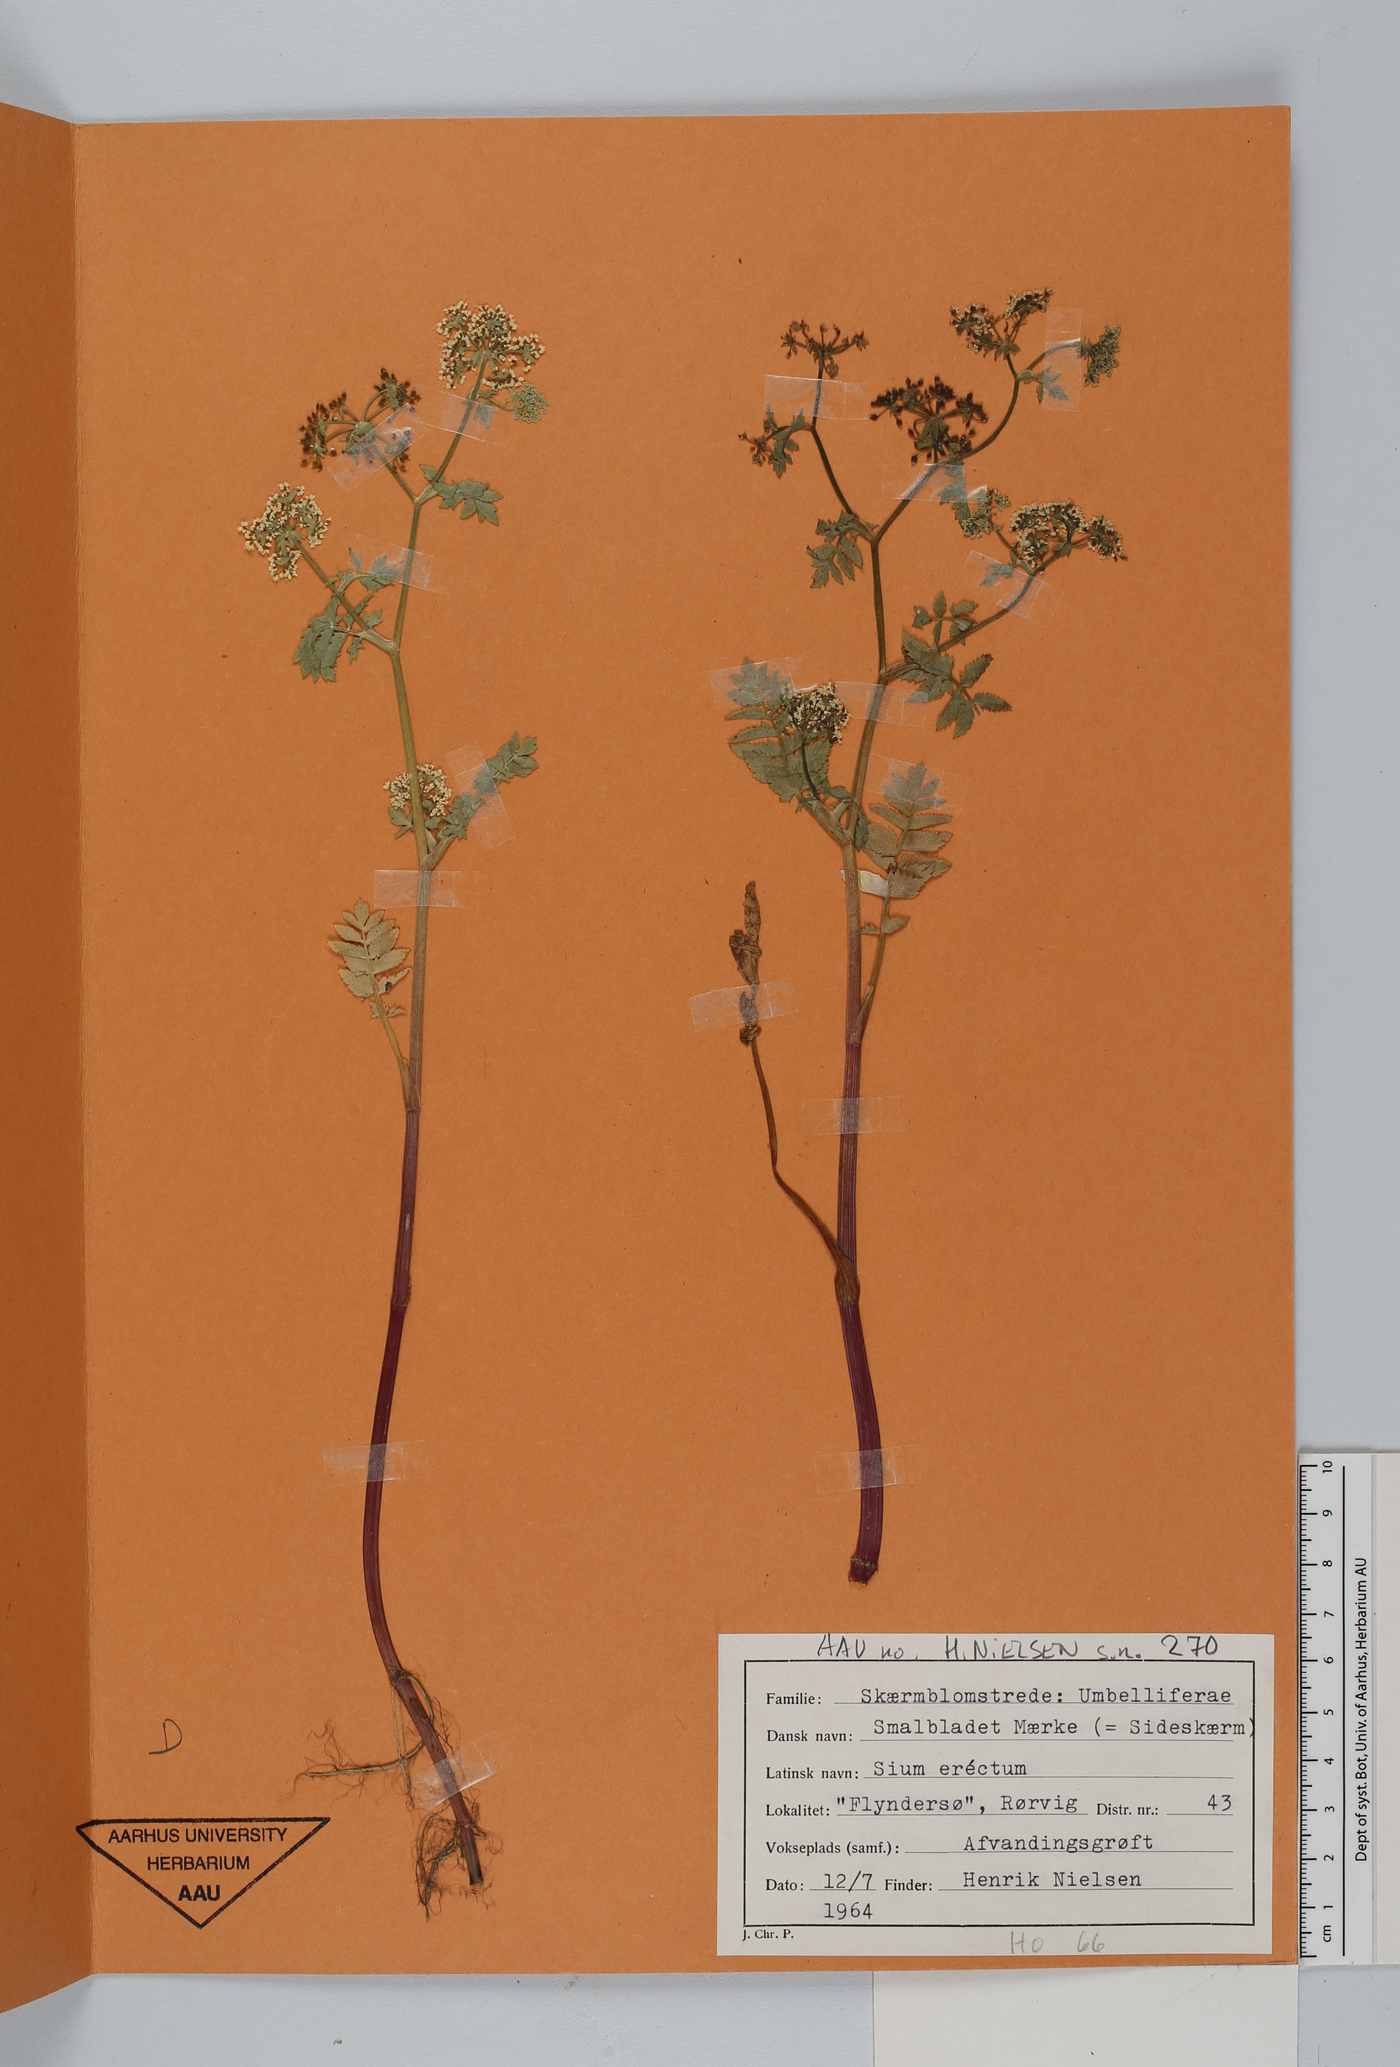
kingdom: Plantae
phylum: Tracheophyta
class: Magnoliopsida
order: Apiales
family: Apiaceae
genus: Berula
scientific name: Berula erecta
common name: Lesser water-parsnip
